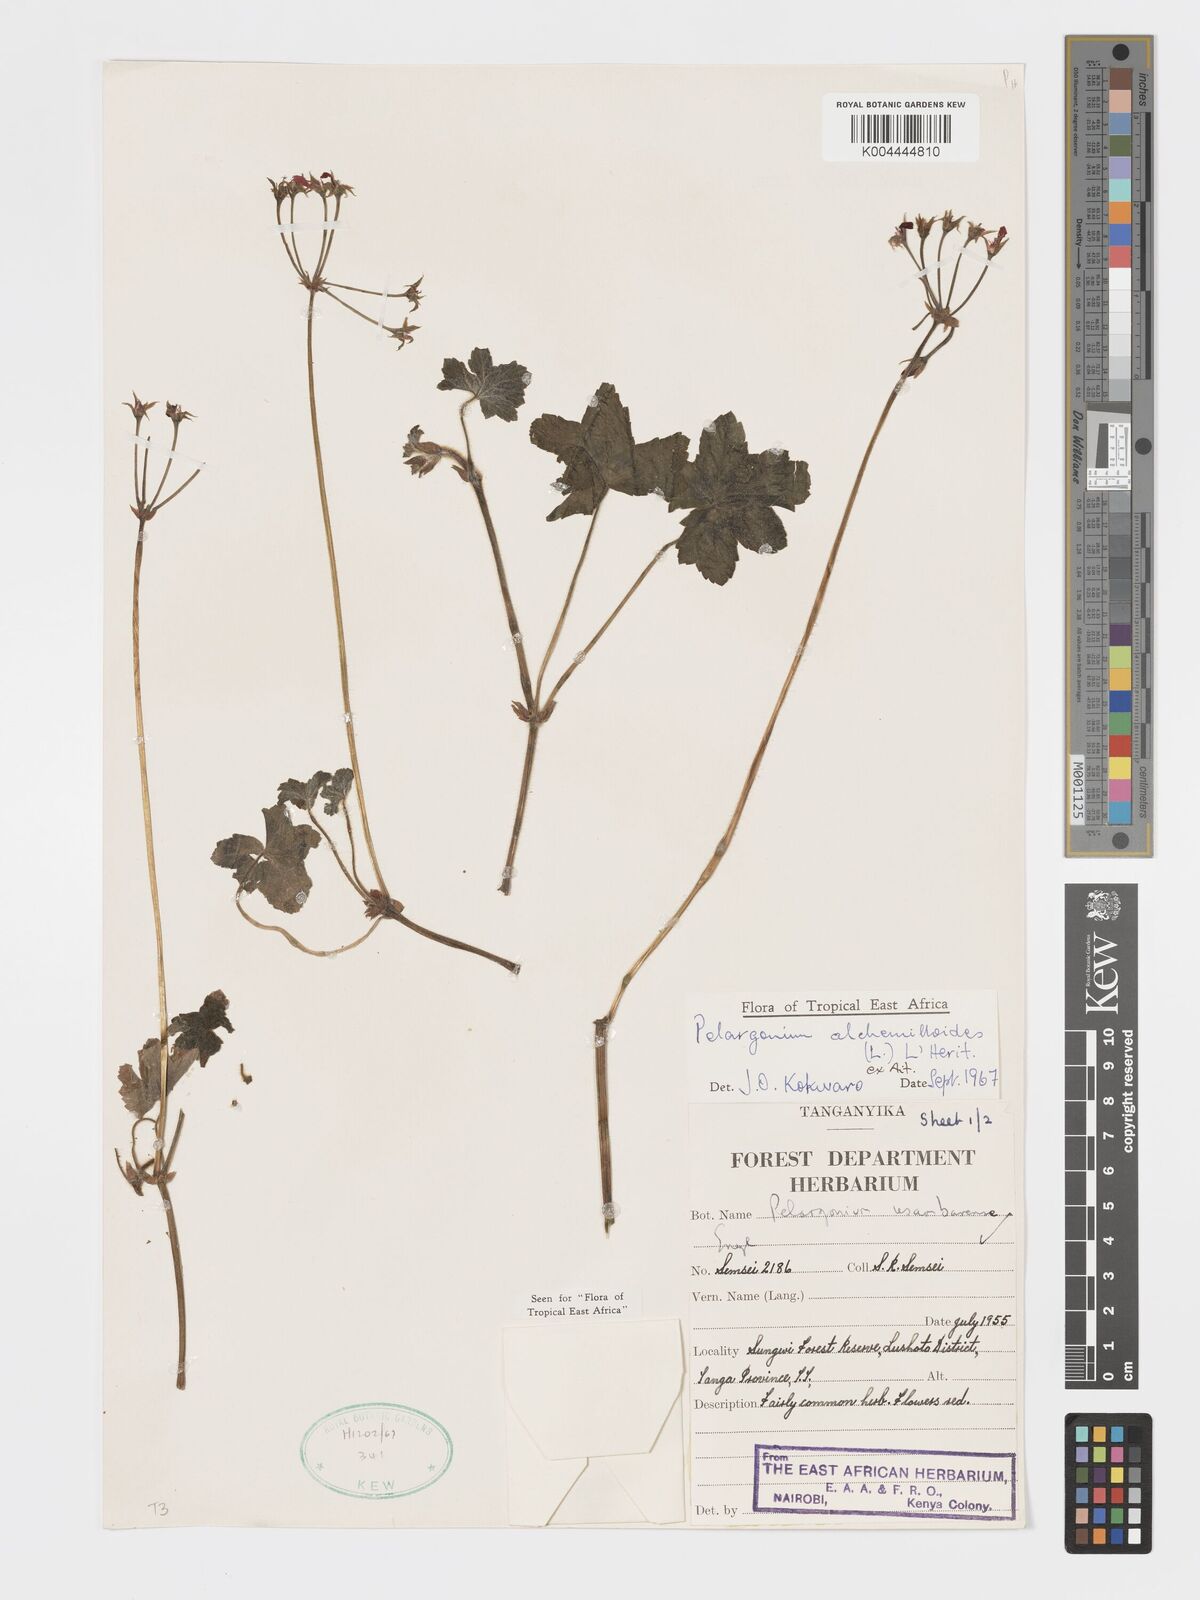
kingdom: Plantae
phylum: Tracheophyta
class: Magnoliopsida
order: Geraniales
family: Geraniaceae
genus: Pelargonium
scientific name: Pelargonium alchemilloides
